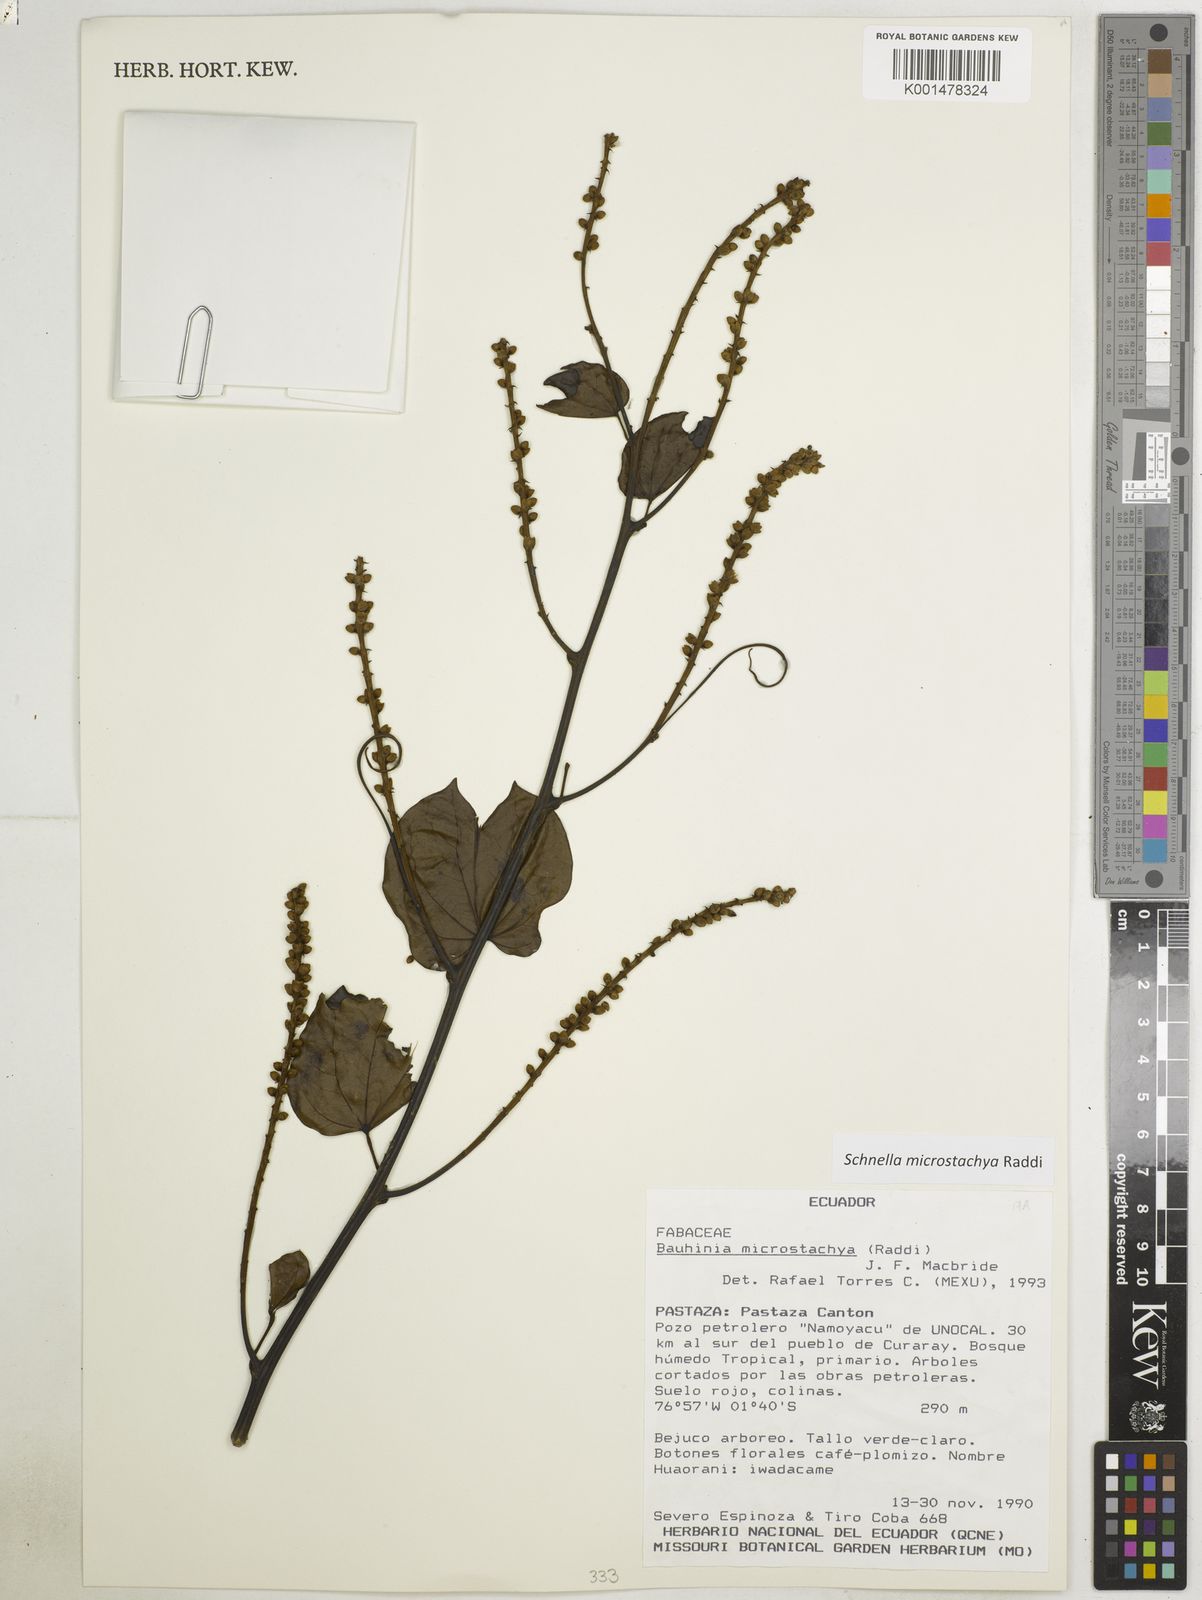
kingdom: Plantae
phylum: Tracheophyta
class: Magnoliopsida
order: Fabales
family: Fabaceae
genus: Schnella
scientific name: Schnella microstachya
